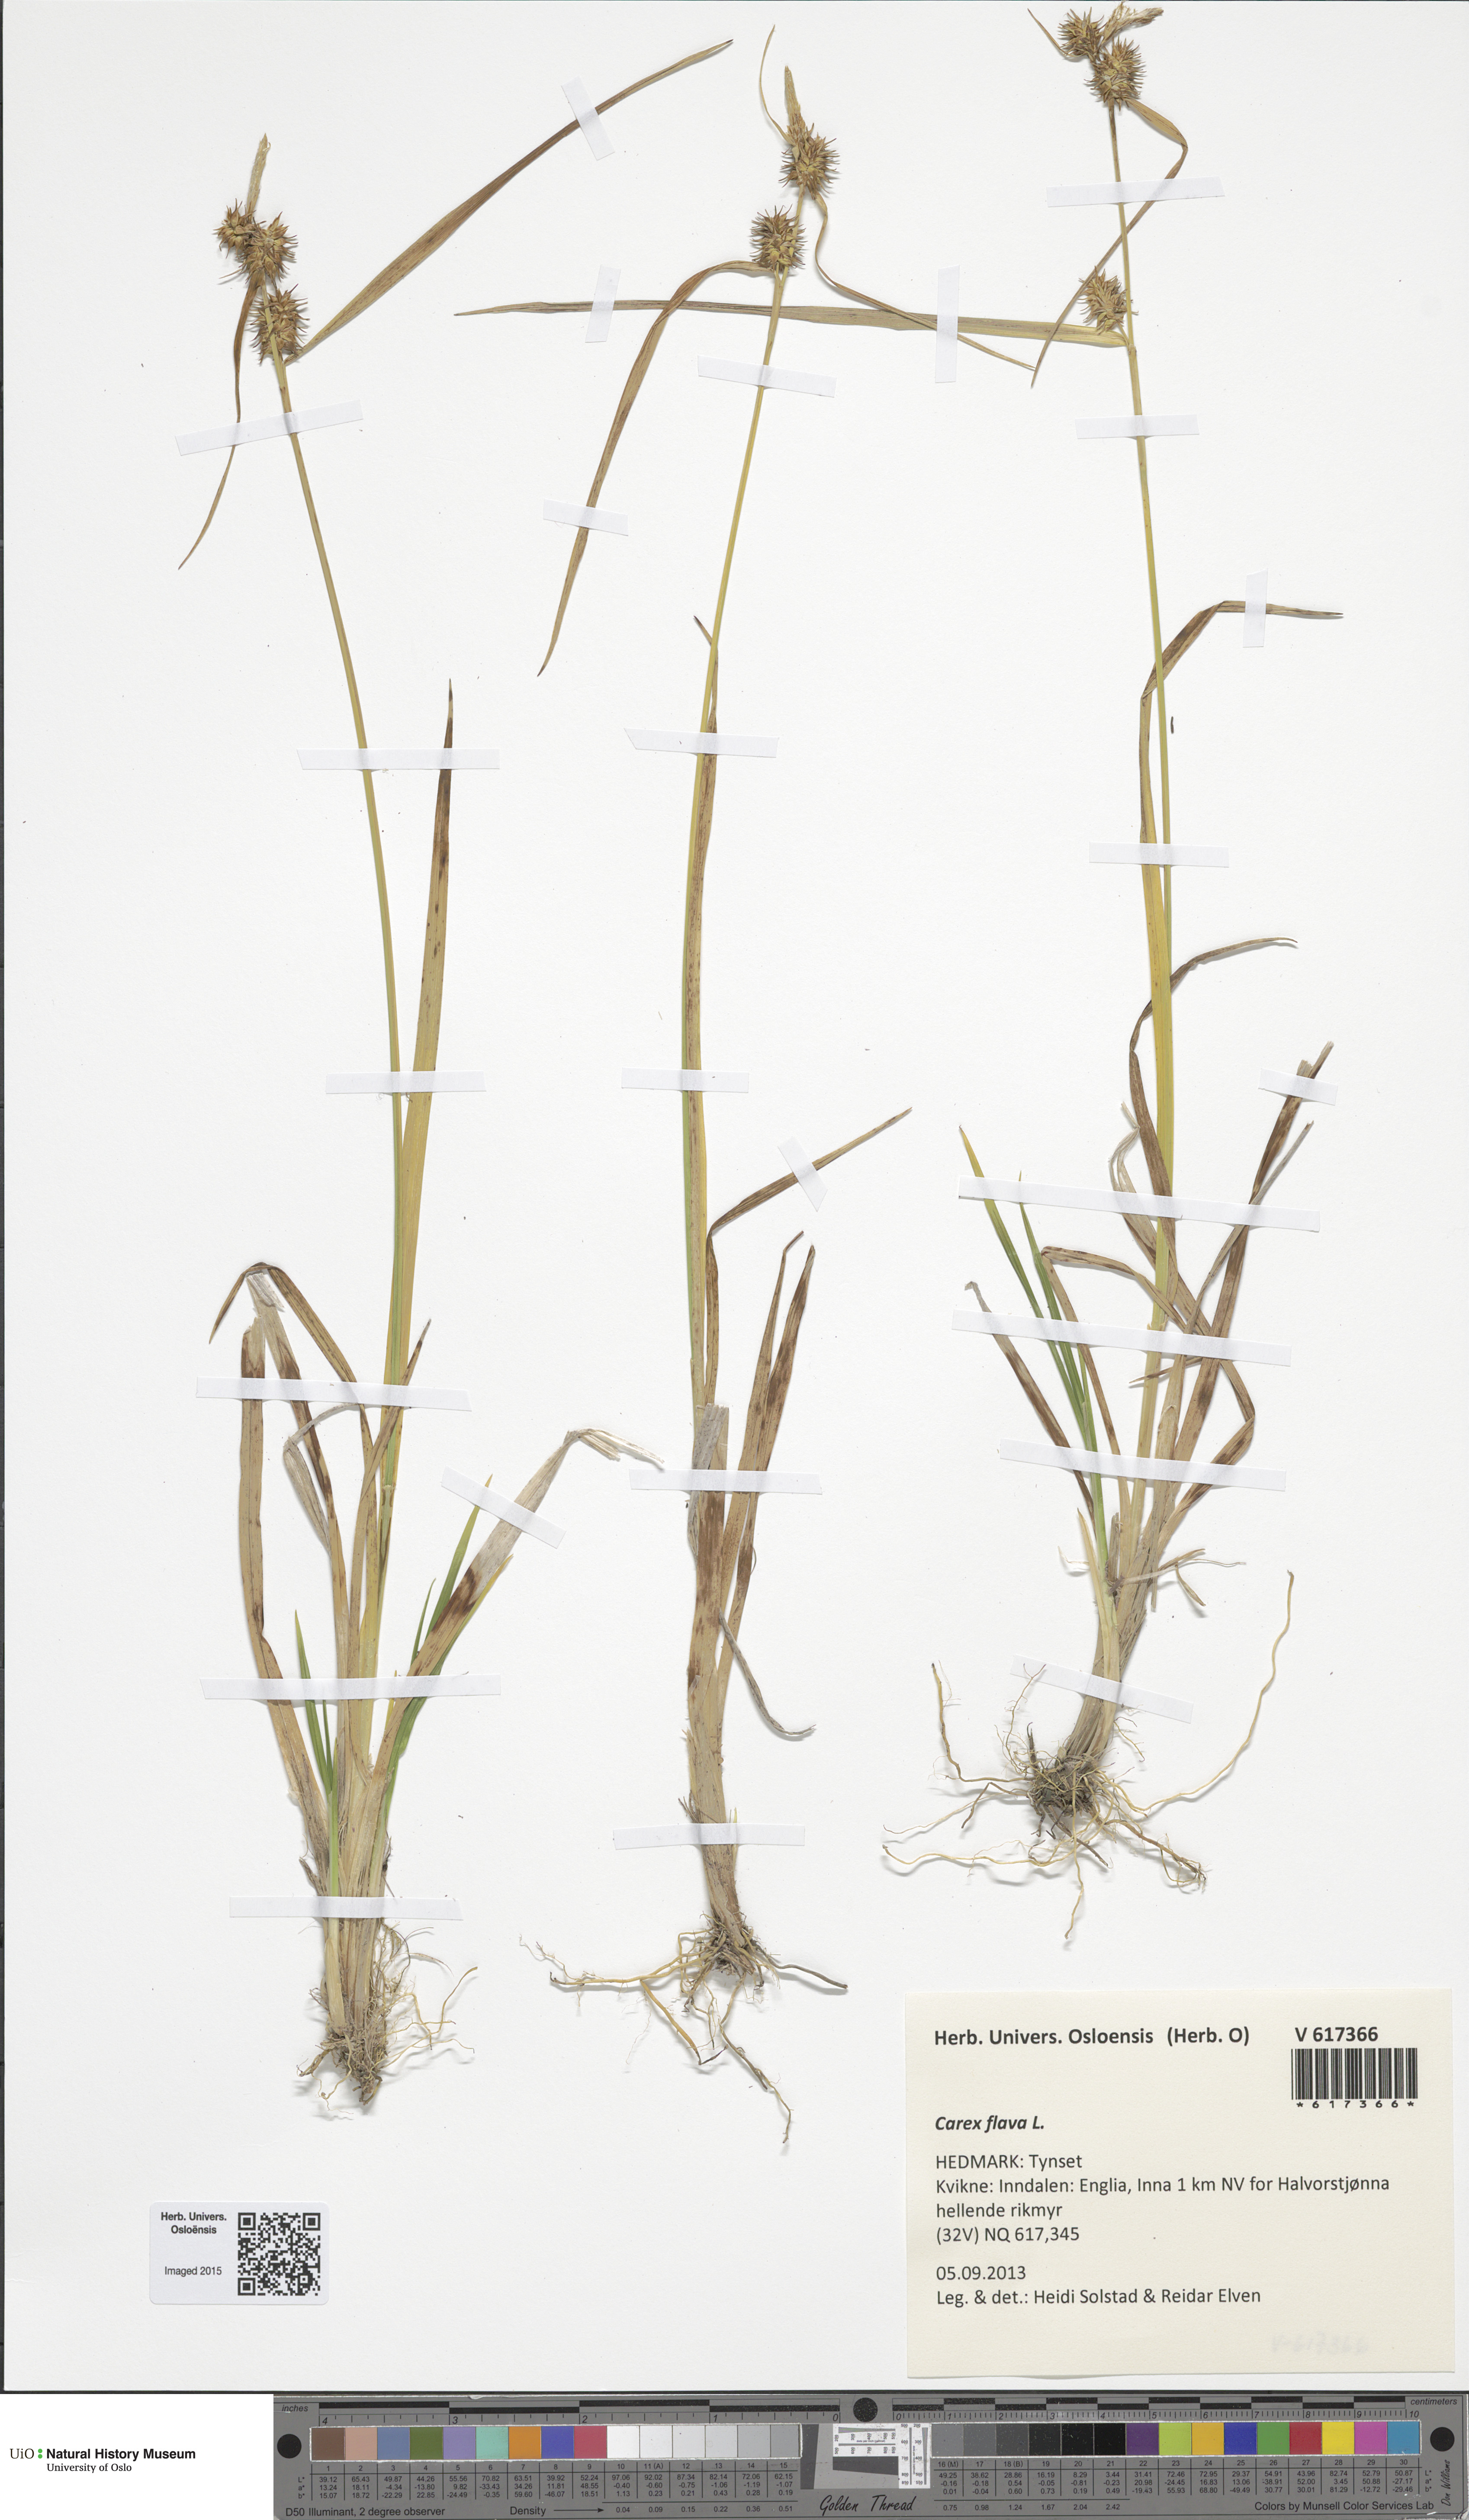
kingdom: Plantae
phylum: Tracheophyta
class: Liliopsida
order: Poales
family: Cyperaceae
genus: Carex
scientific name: Carex flava
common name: Large yellow-sedge
